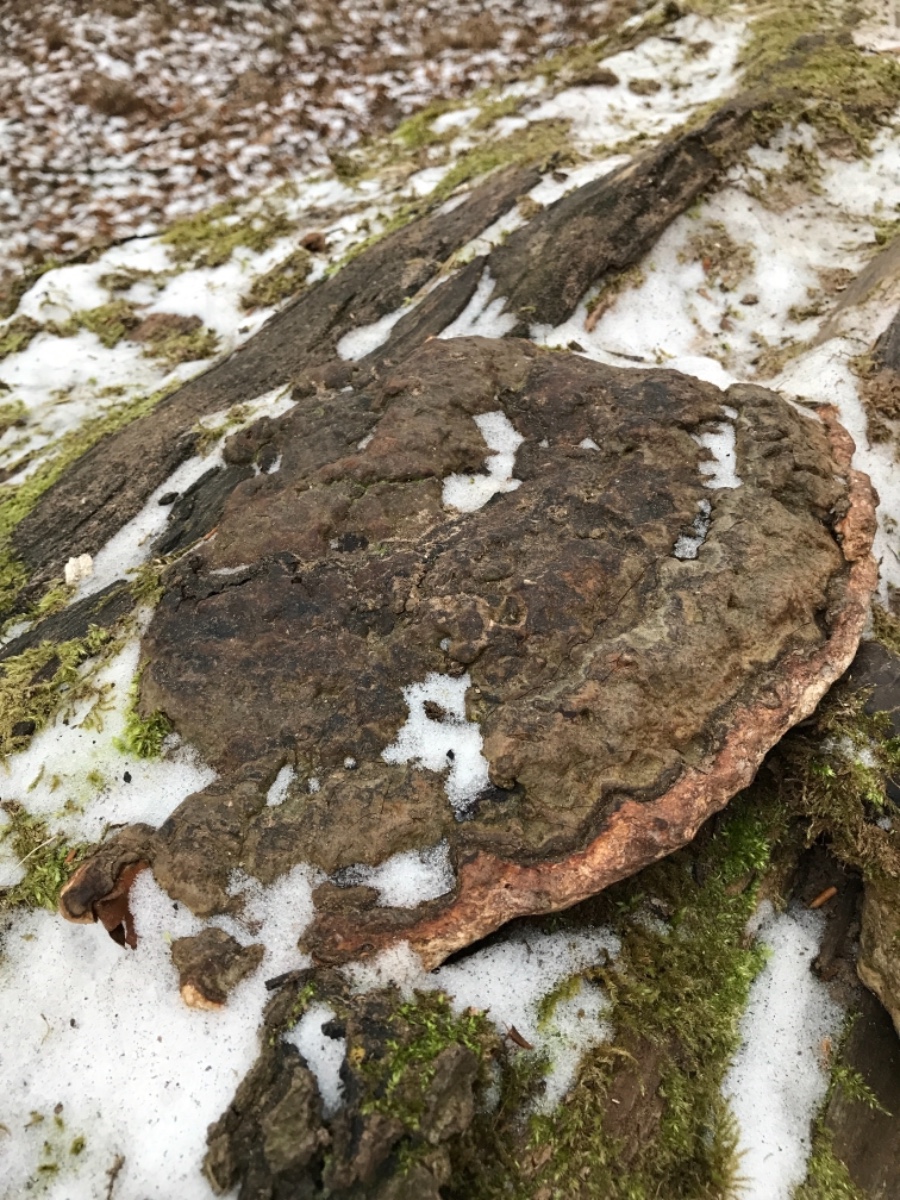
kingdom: Fungi
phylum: Basidiomycota
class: Agaricomycetes
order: Polyporales
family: Polyporaceae
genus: Ganoderma
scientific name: Ganoderma applanatum
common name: flad lakporesvamp
